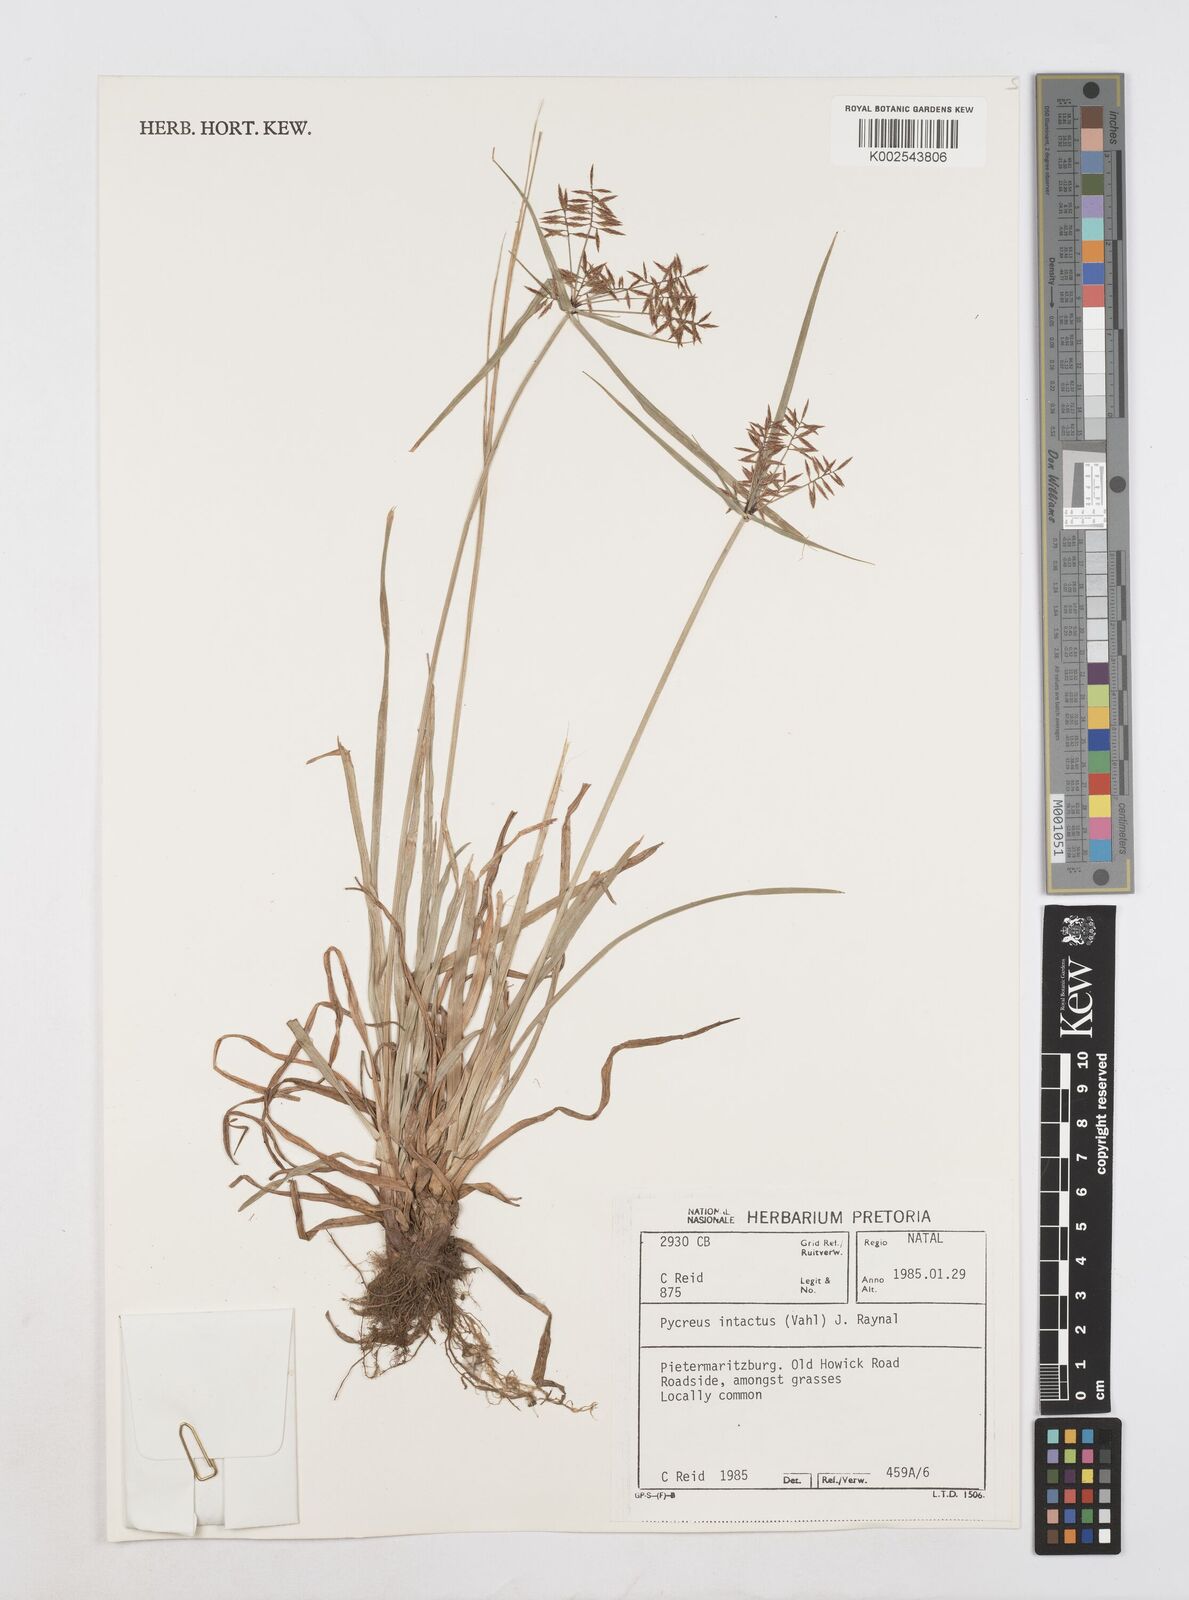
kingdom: Plantae
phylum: Tracheophyta
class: Liliopsida
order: Poales
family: Cyperaceae
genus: Cyperus
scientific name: Cyperus intactus
